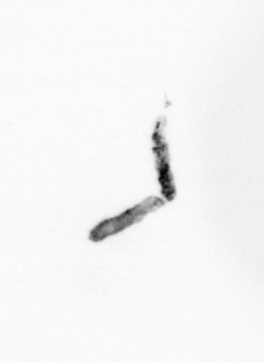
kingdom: Chromista
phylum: Ochrophyta
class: Bacillariophyceae
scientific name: Bacillariophyceae
